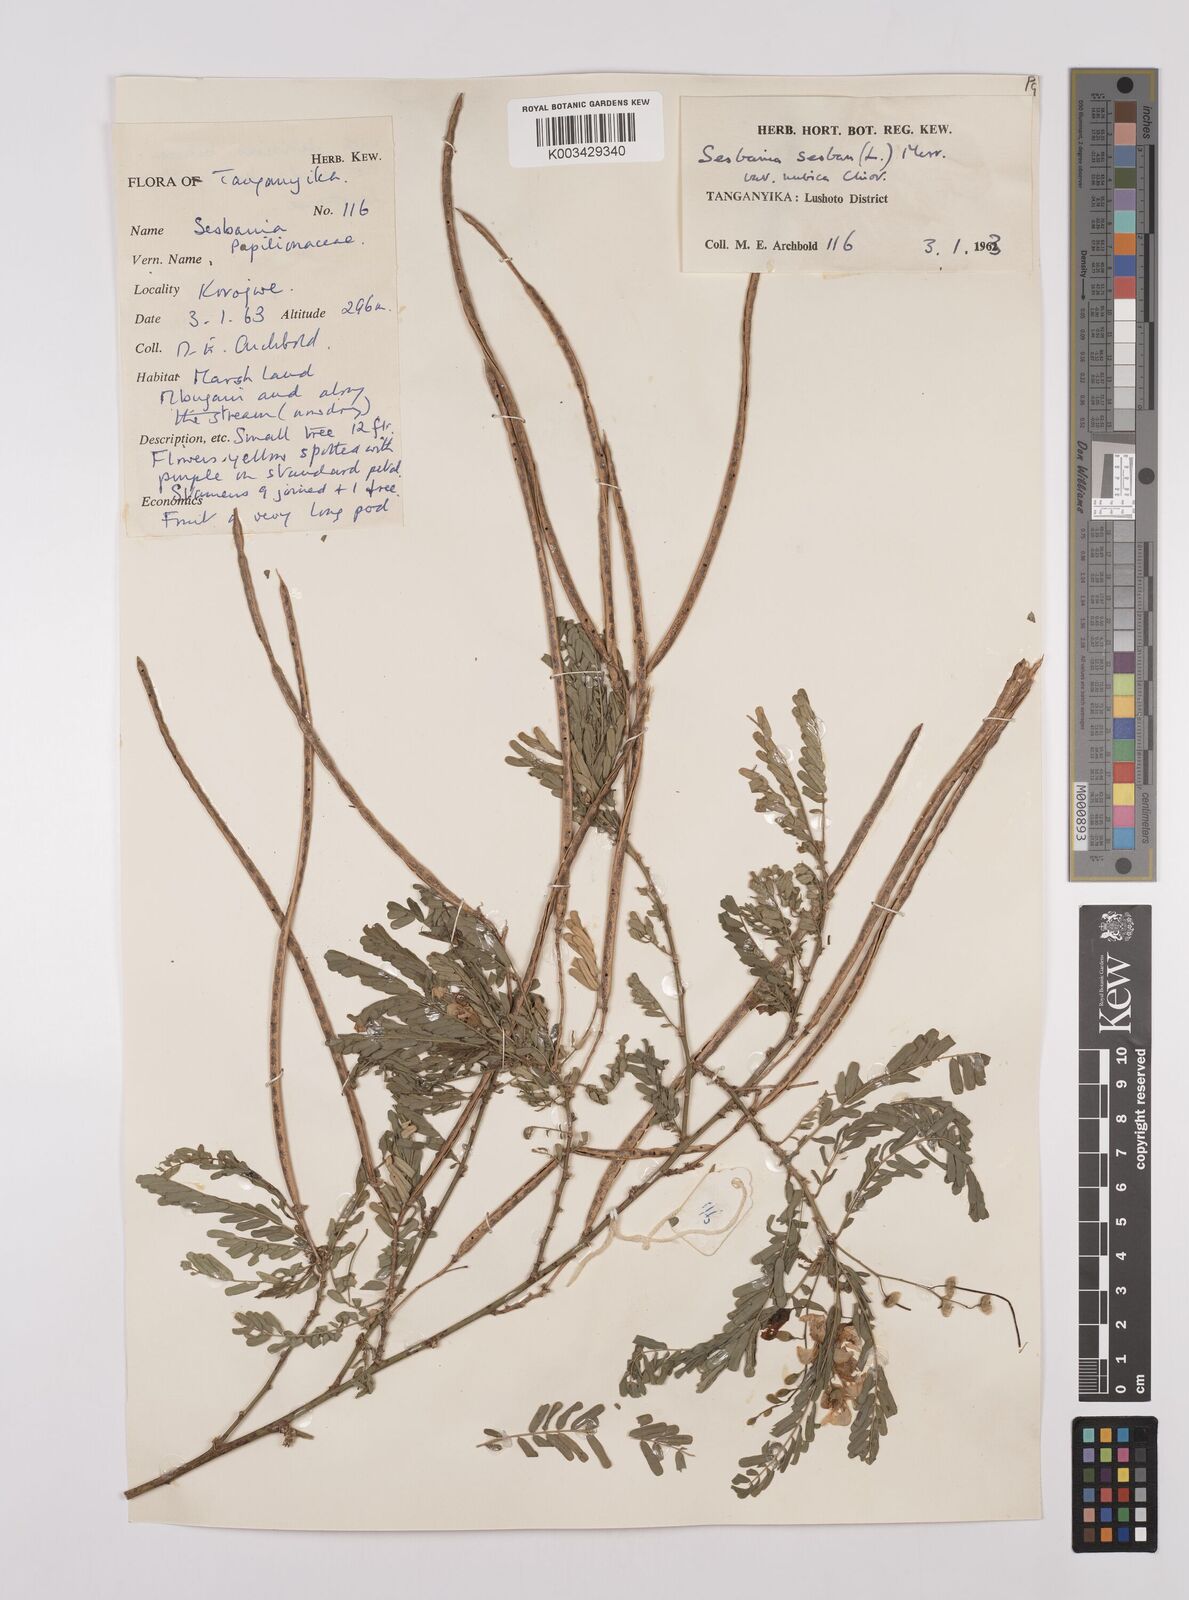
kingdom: Plantae
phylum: Tracheophyta
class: Magnoliopsida
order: Fabales
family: Fabaceae
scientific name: Fabaceae
